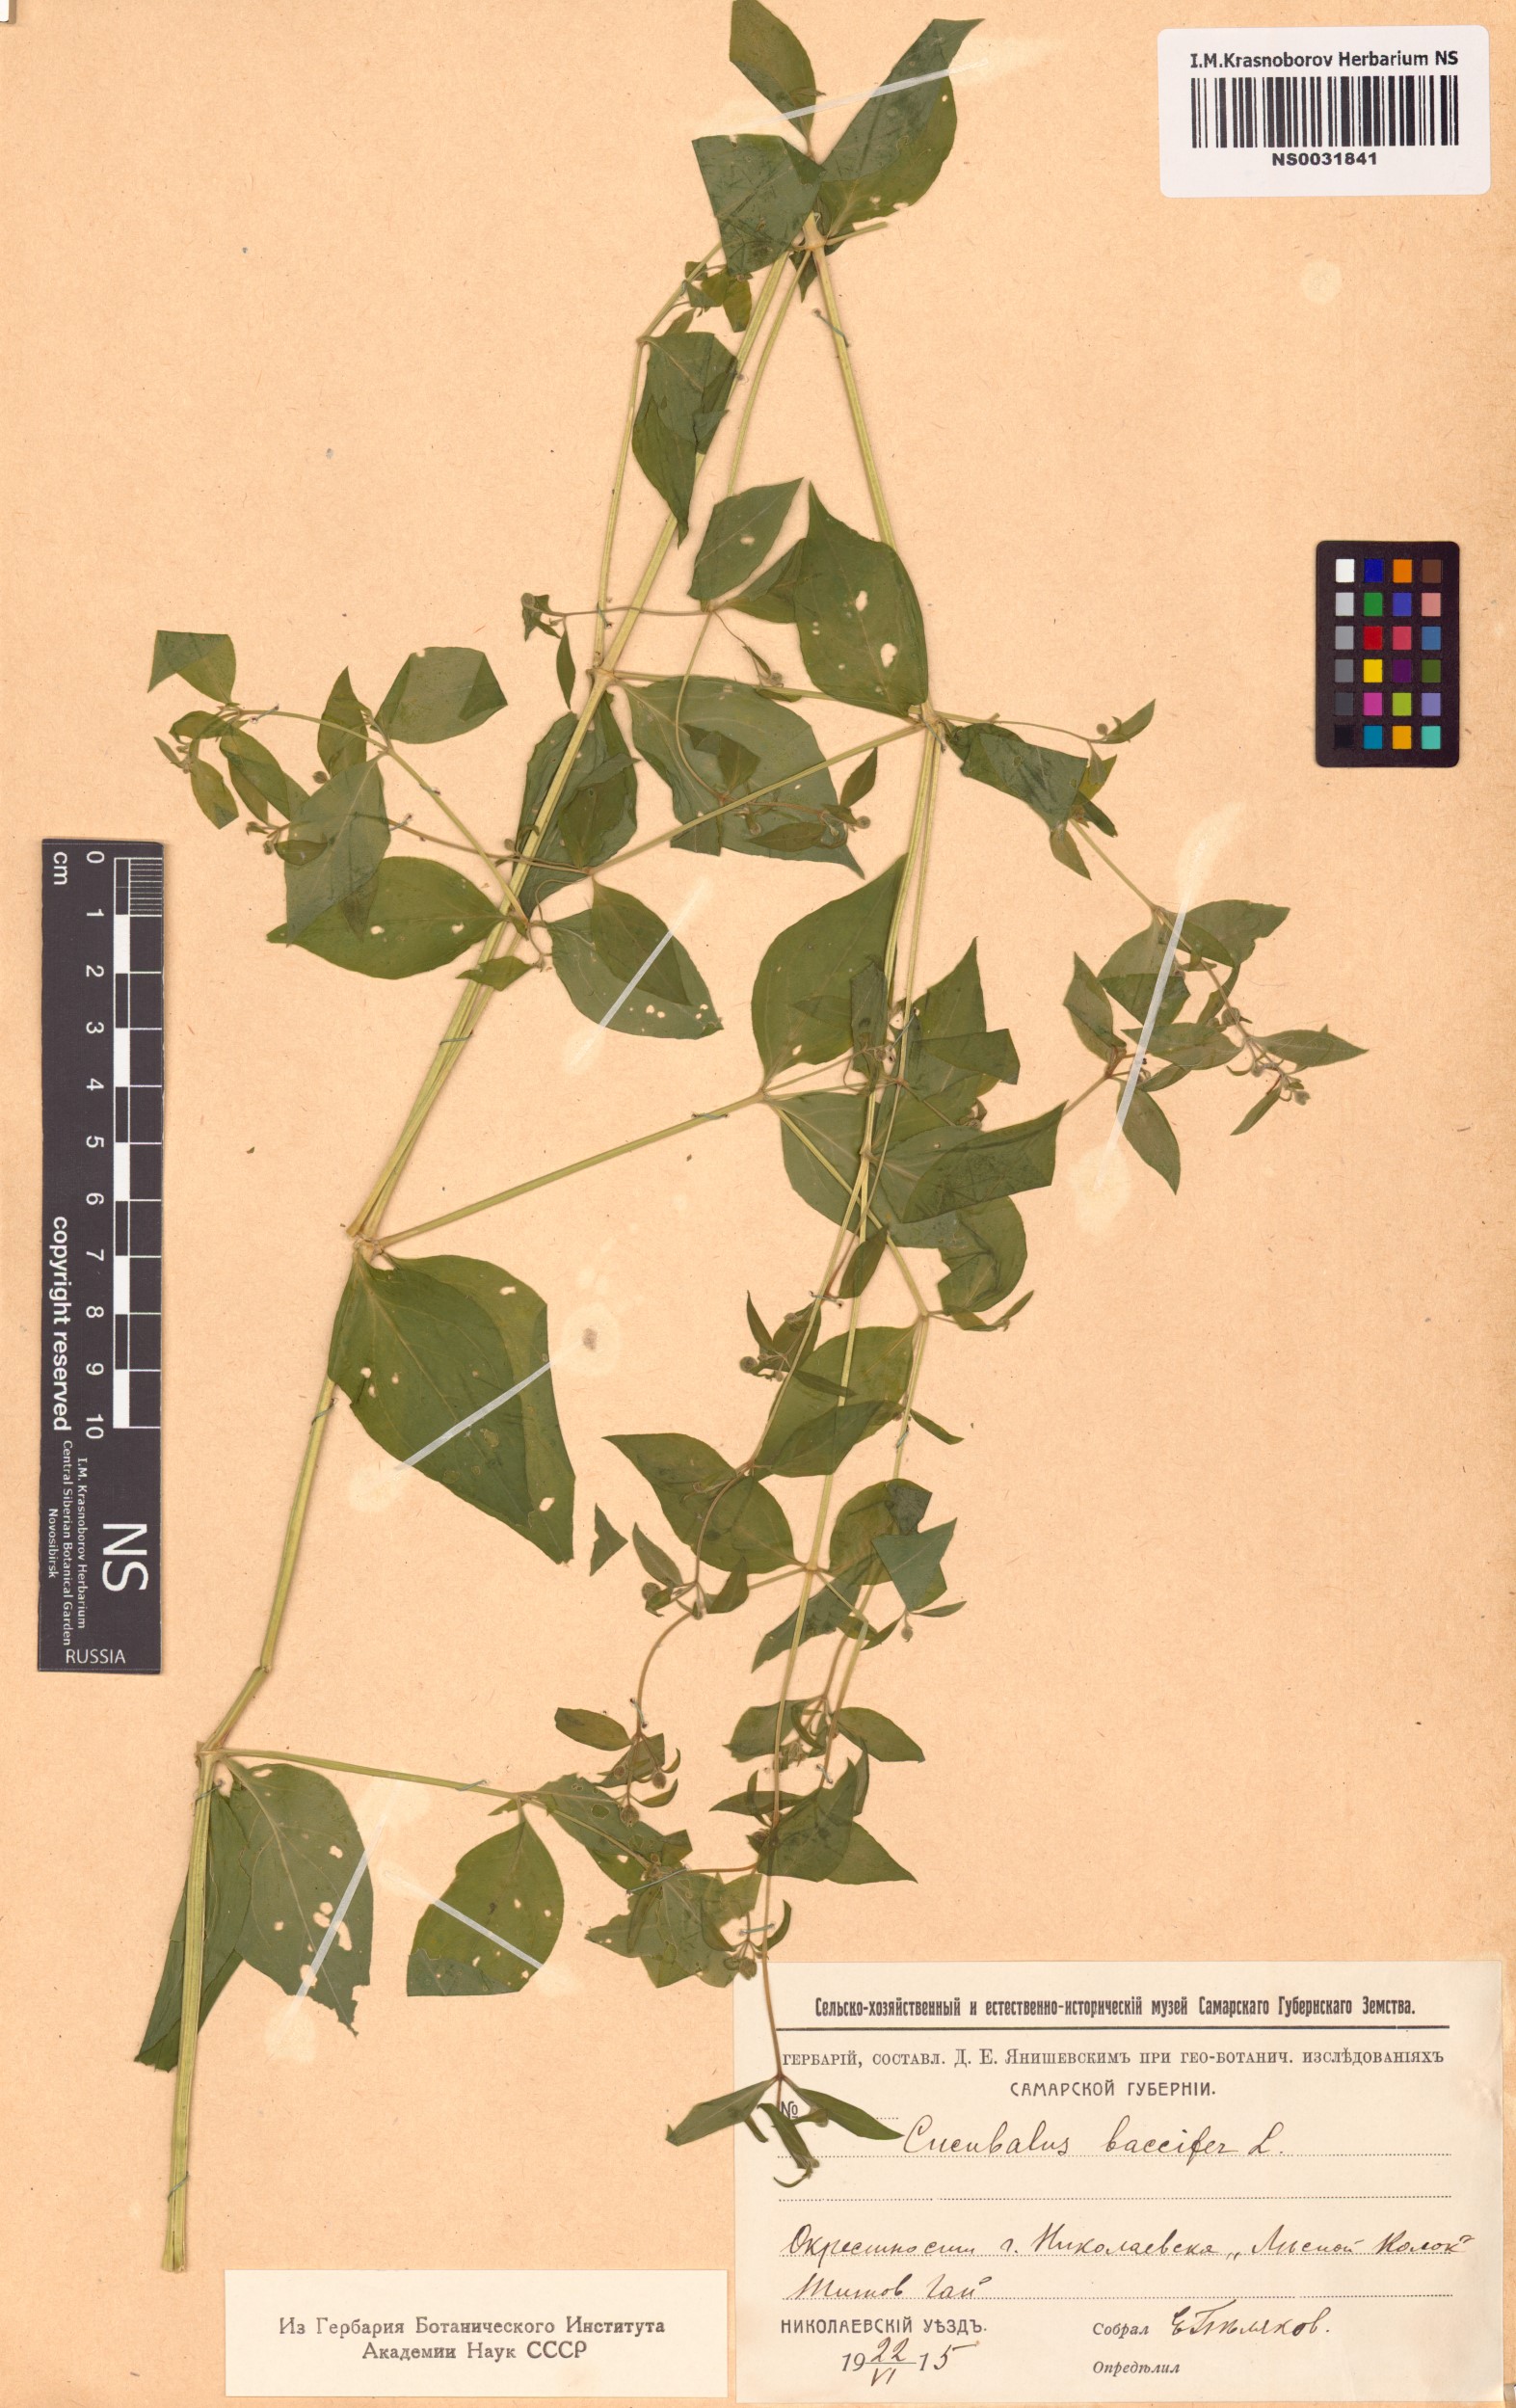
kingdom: Plantae
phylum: Tracheophyta
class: Magnoliopsida
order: Caryophyllales
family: Caryophyllaceae
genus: Silene
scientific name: Silene baccifera
